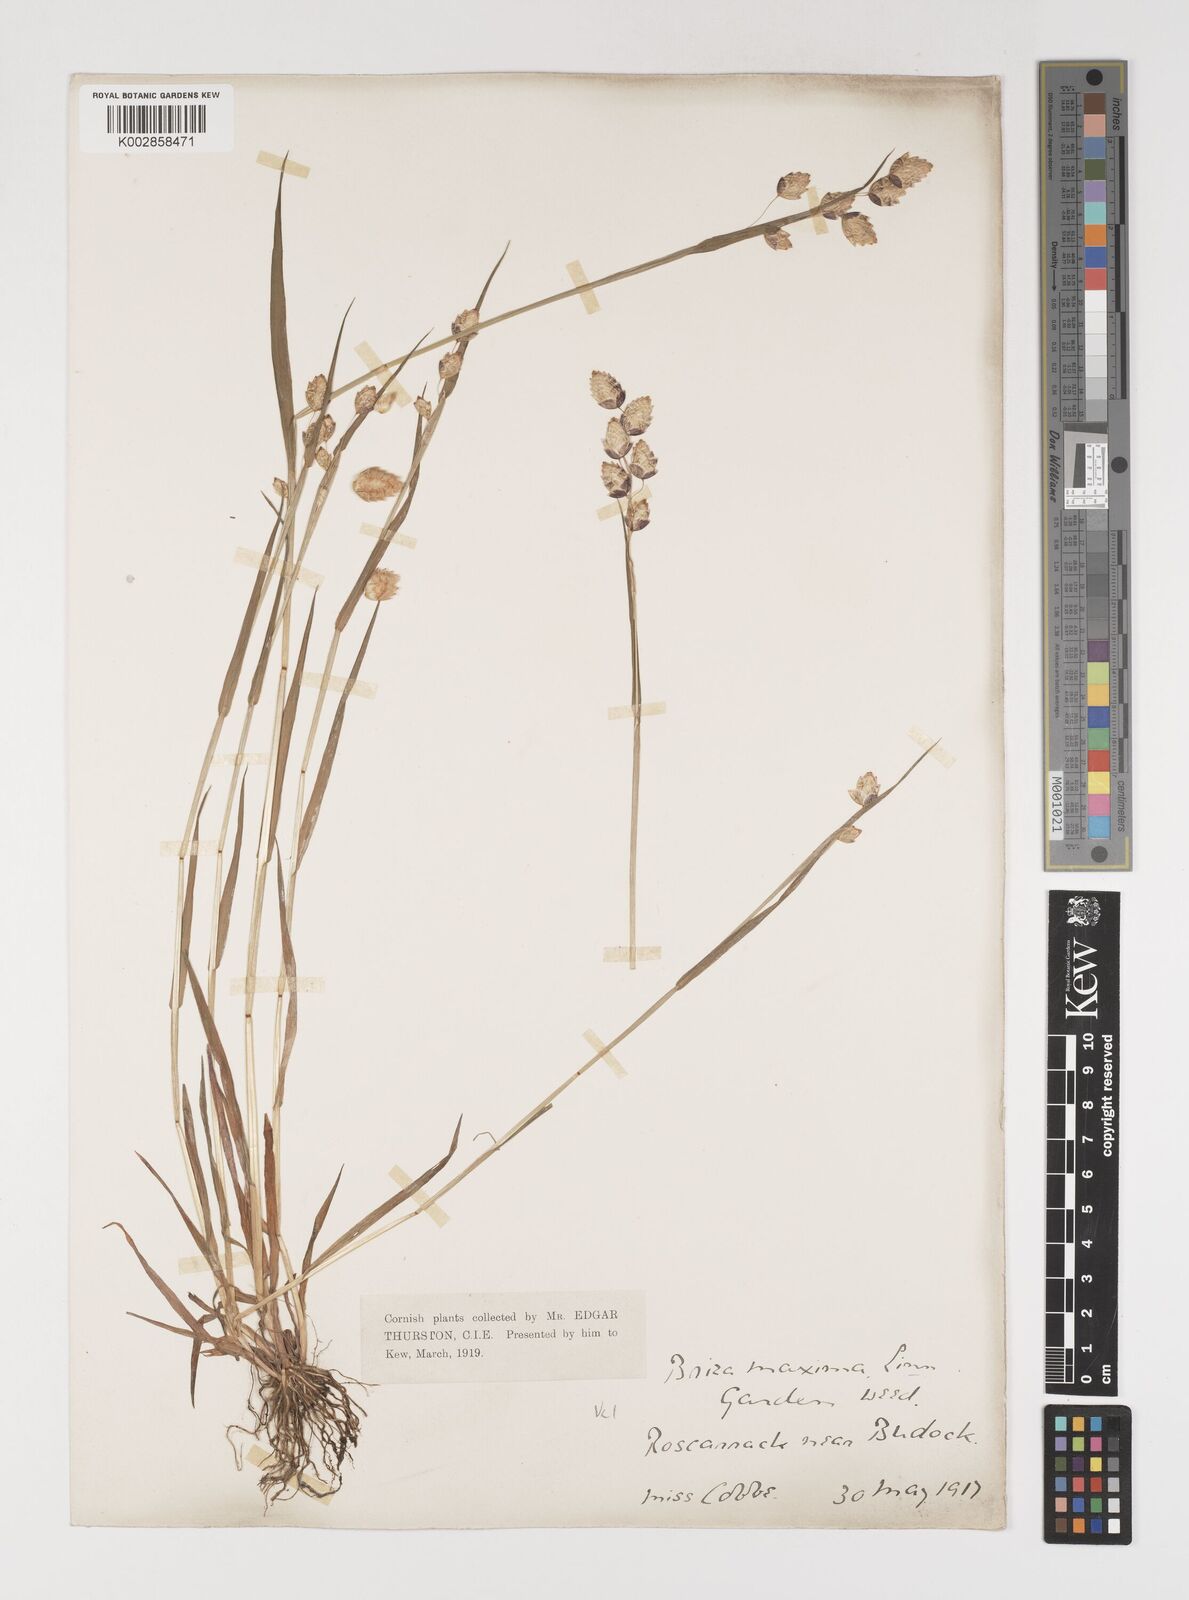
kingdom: Plantae
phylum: Tracheophyta
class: Liliopsida
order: Poales
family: Poaceae
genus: Briza
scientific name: Briza maxima
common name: Big quakinggrass
